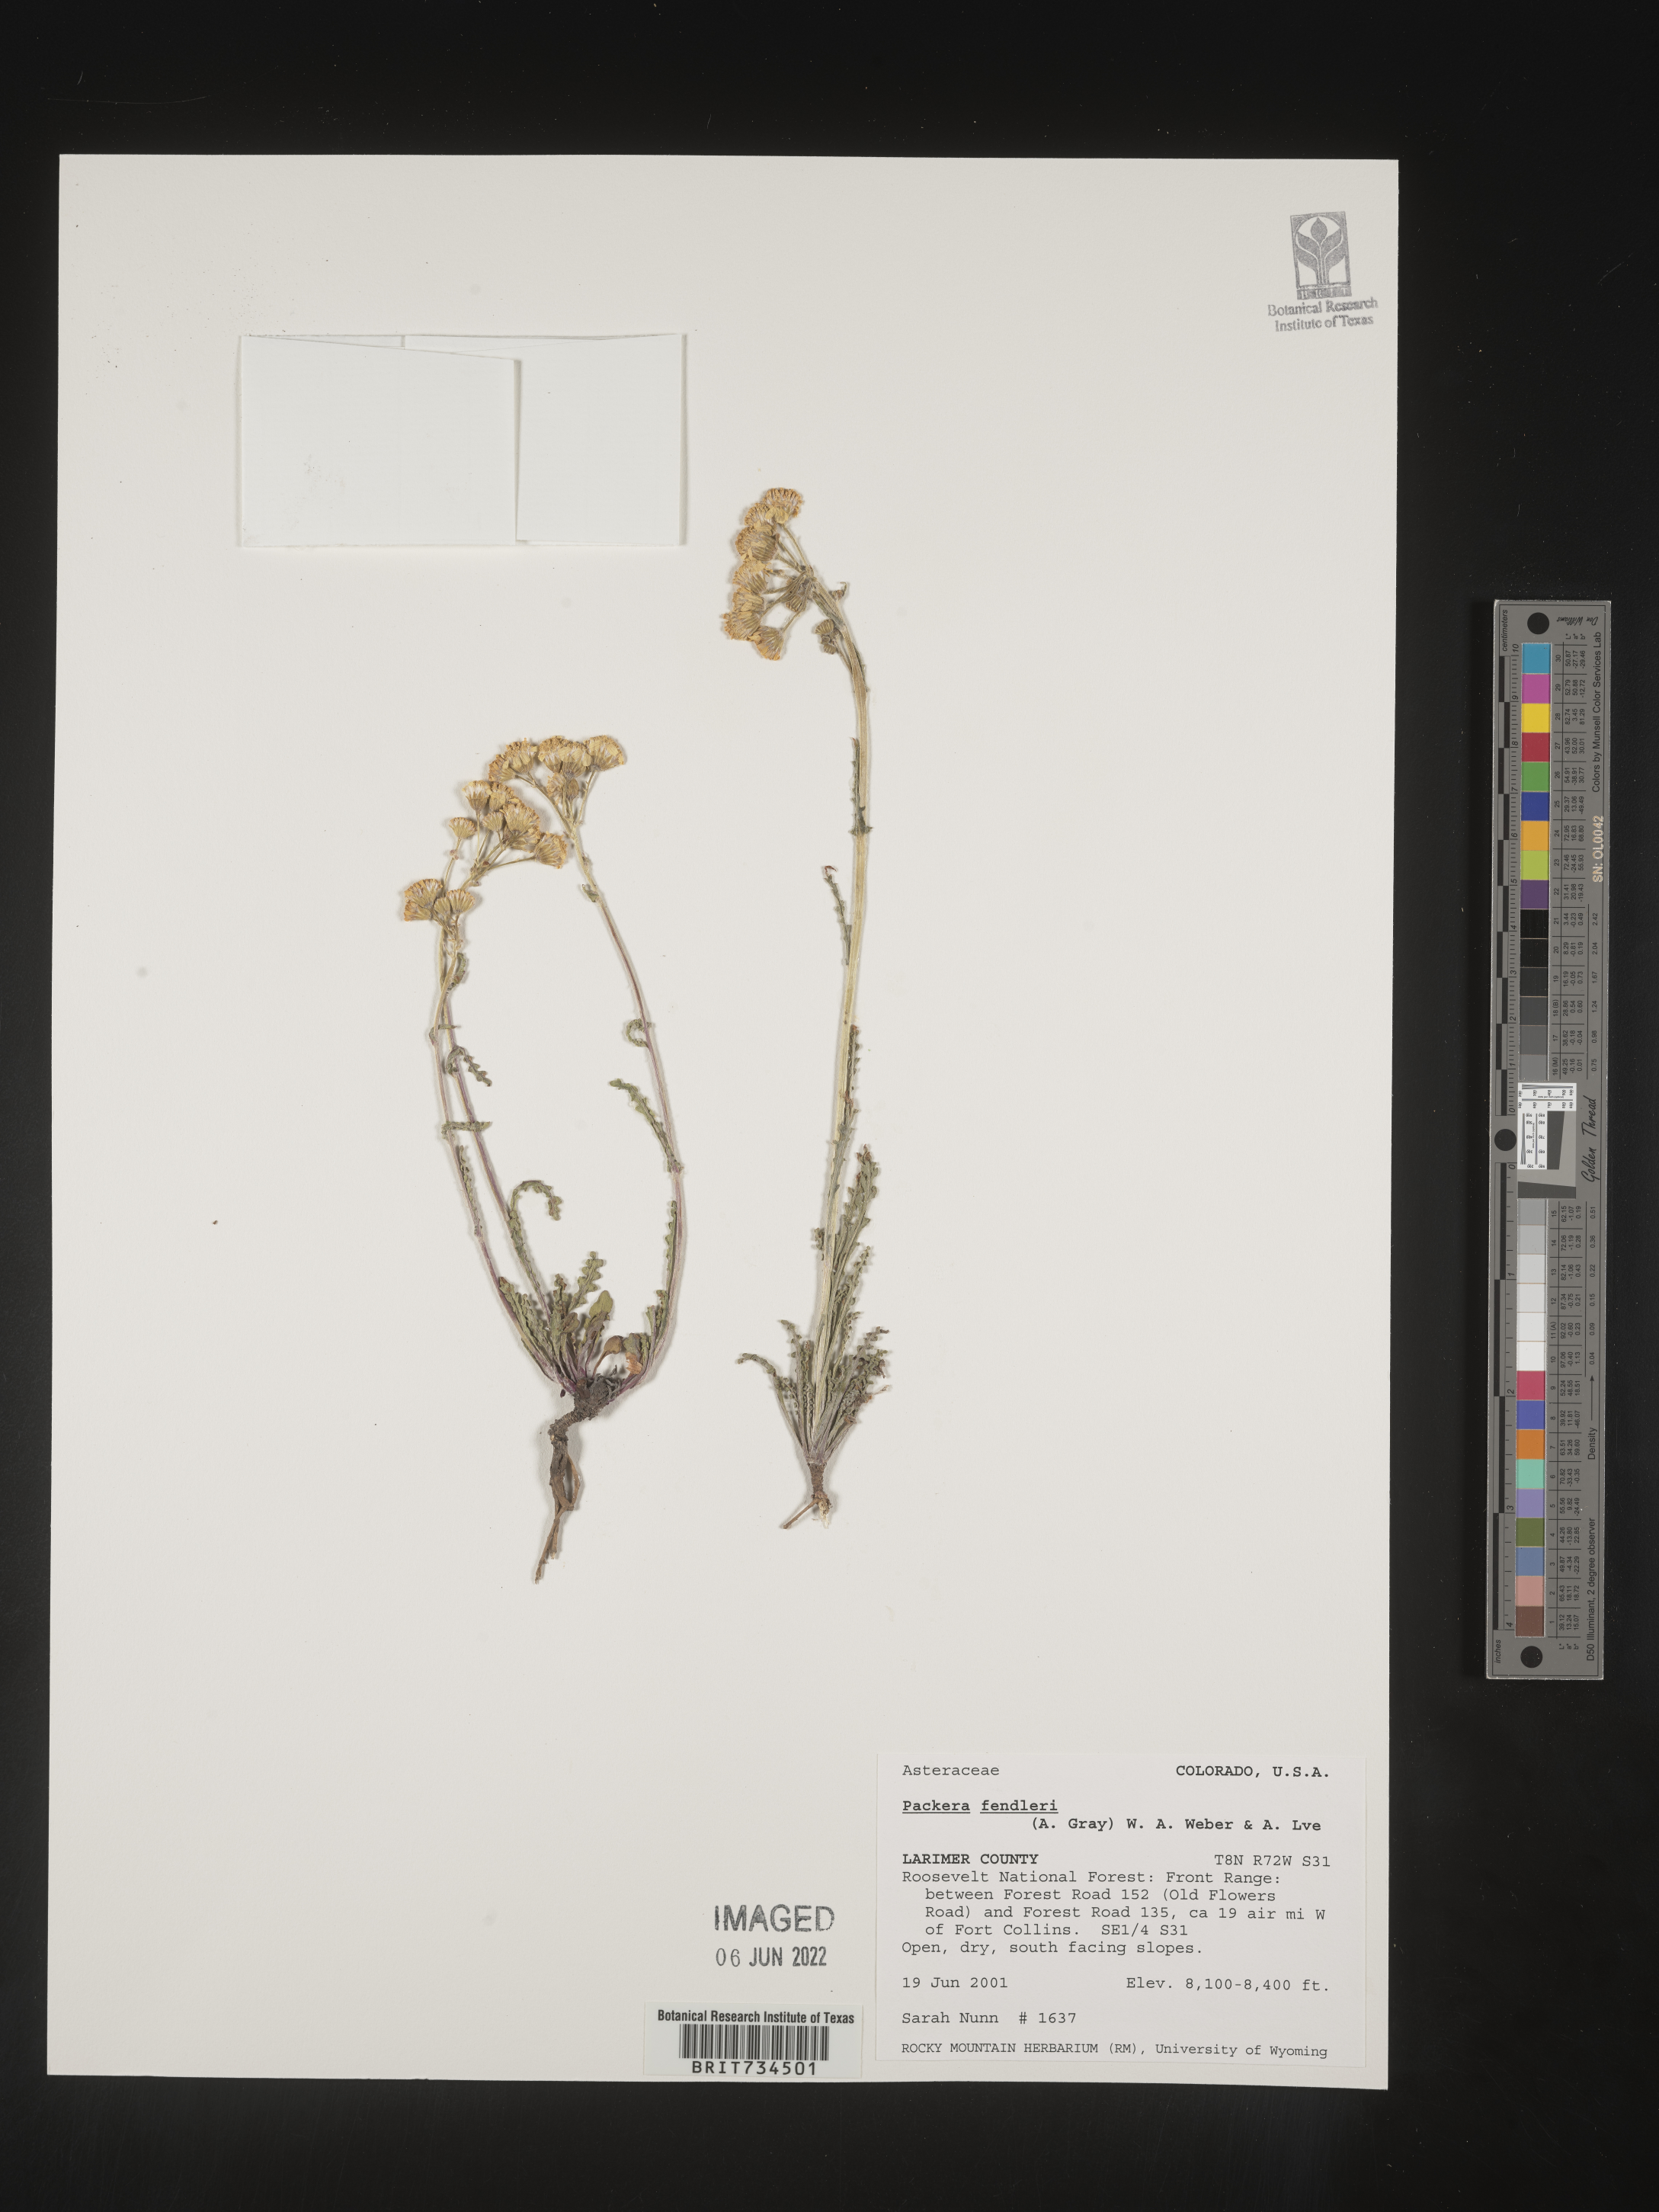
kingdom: Plantae
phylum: Tracheophyta
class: Magnoliopsida
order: Asterales
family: Asteraceae
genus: Packera
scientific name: Packera fendleri
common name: Notch-leaf butterweed
